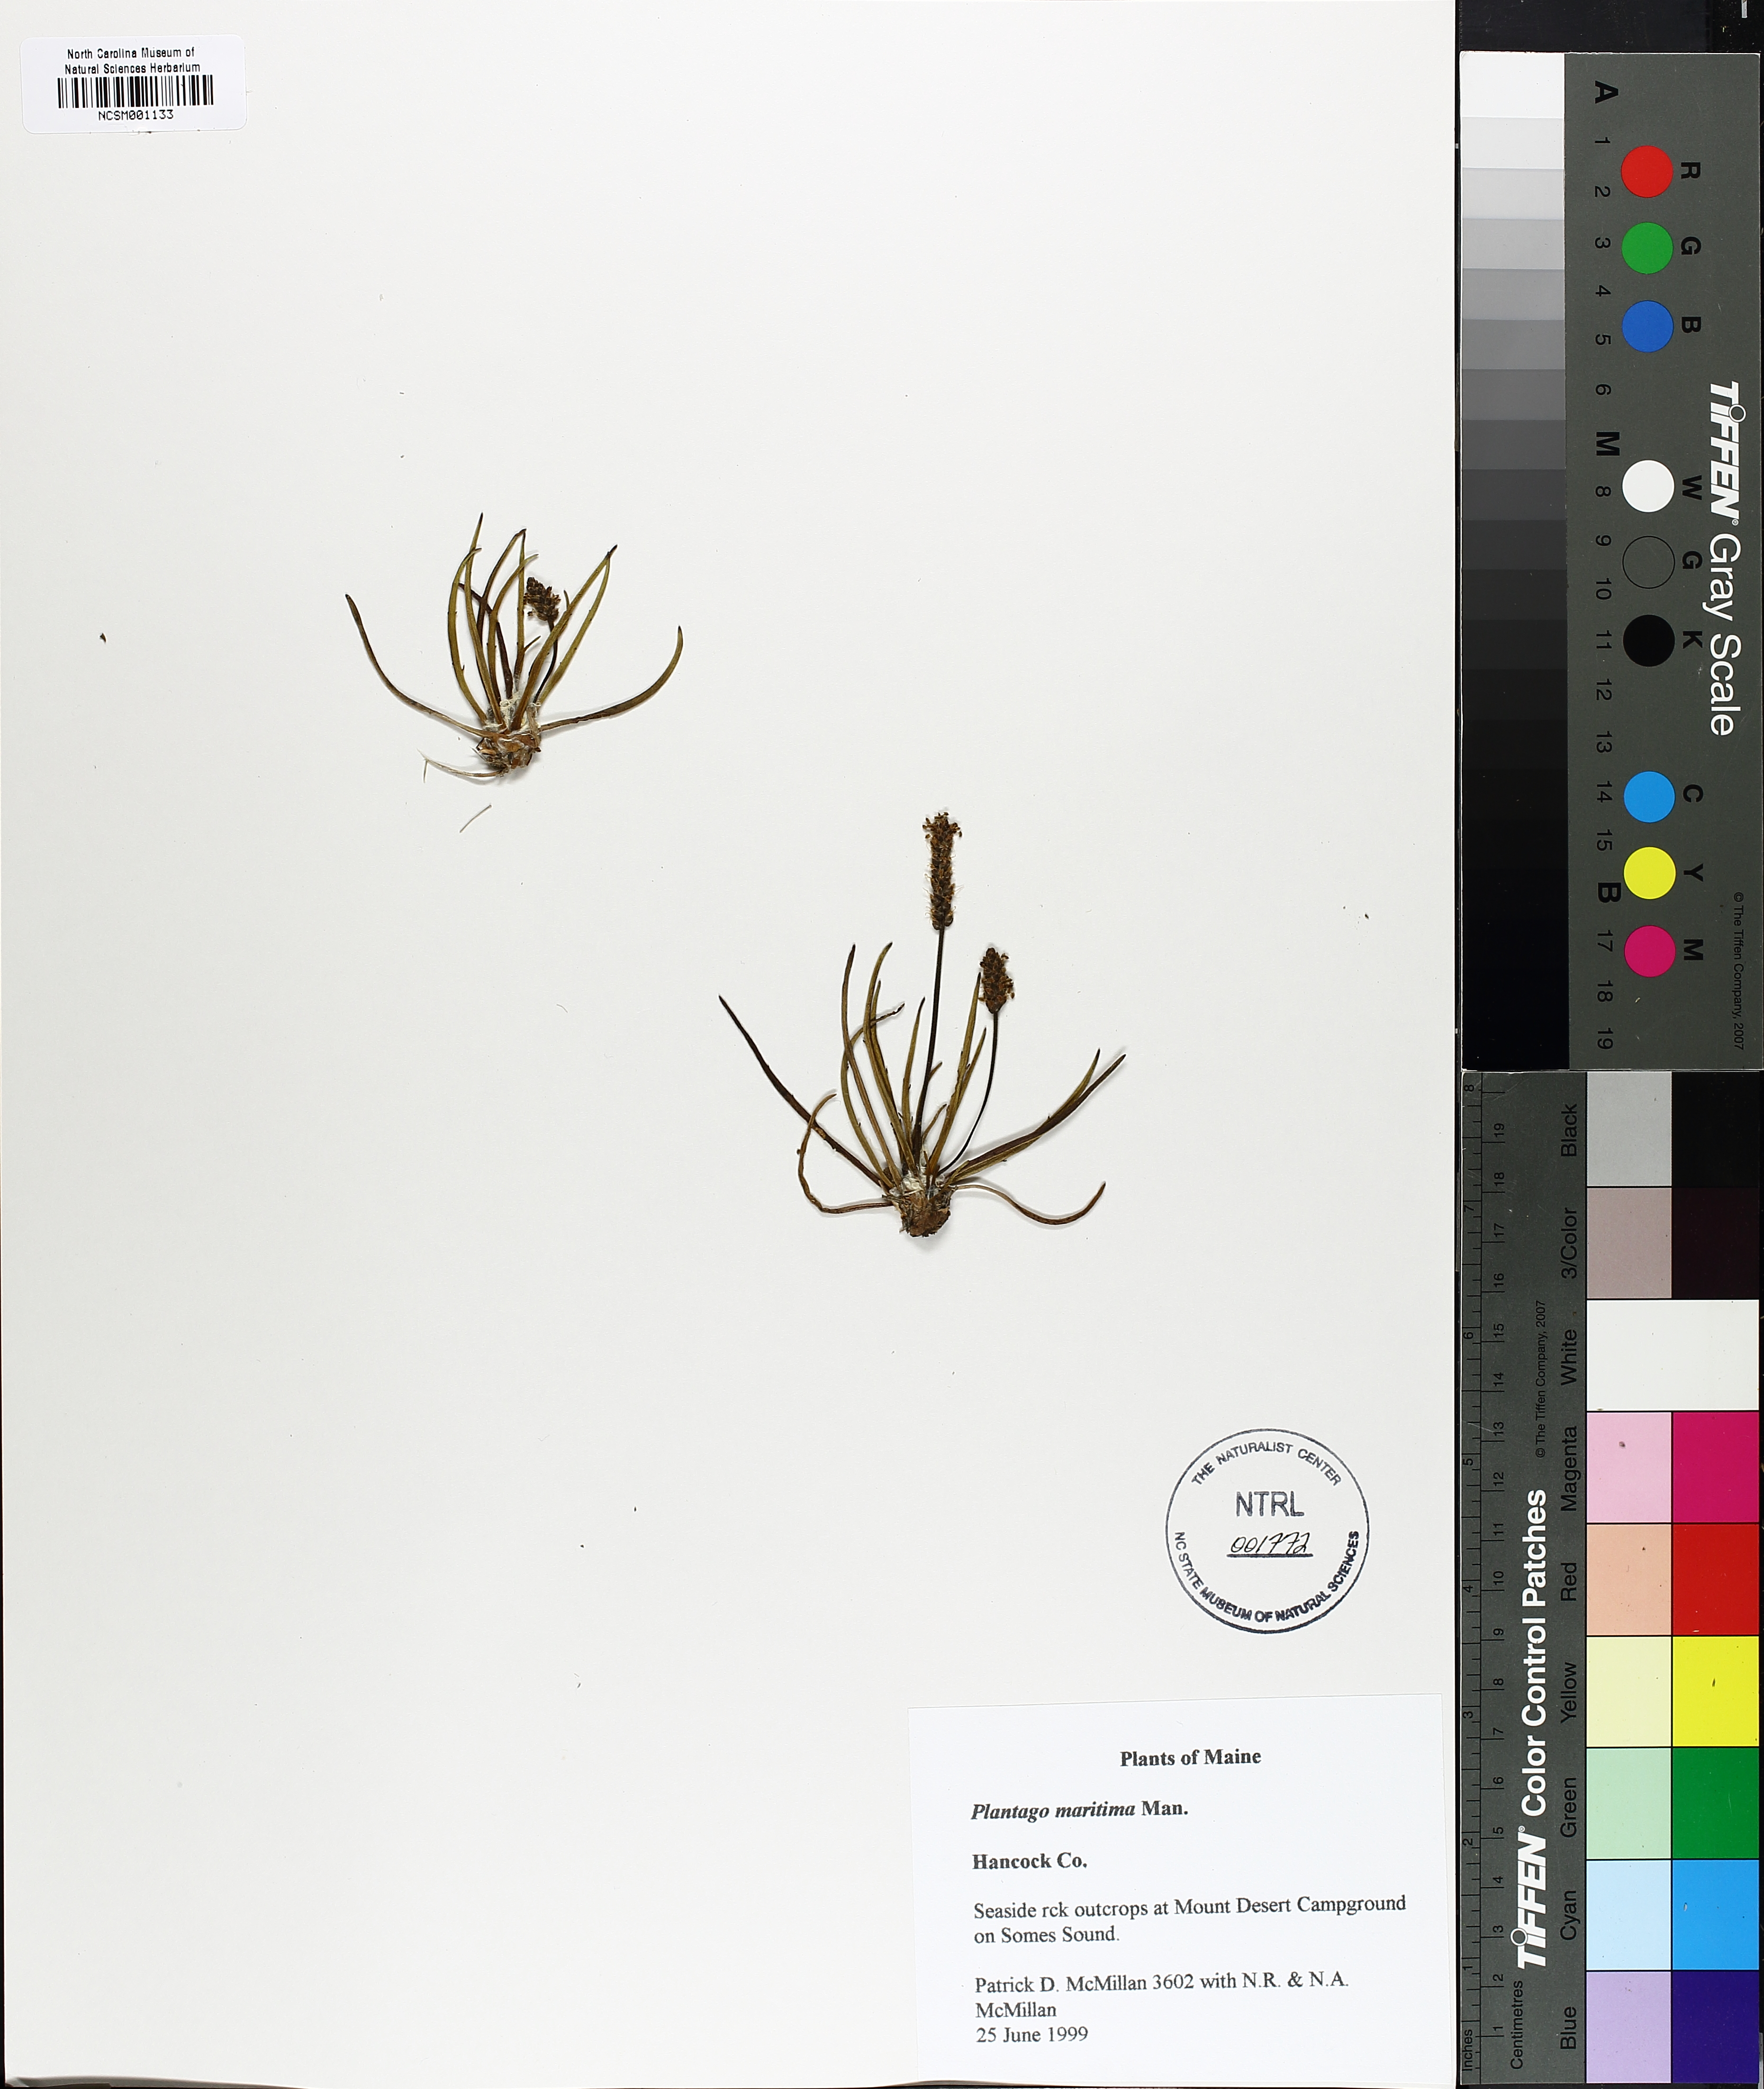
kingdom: Plantae
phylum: Tracheophyta
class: Magnoliopsida
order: Lamiales
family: Plantaginaceae
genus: Plantago
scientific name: Plantago crassifolia
